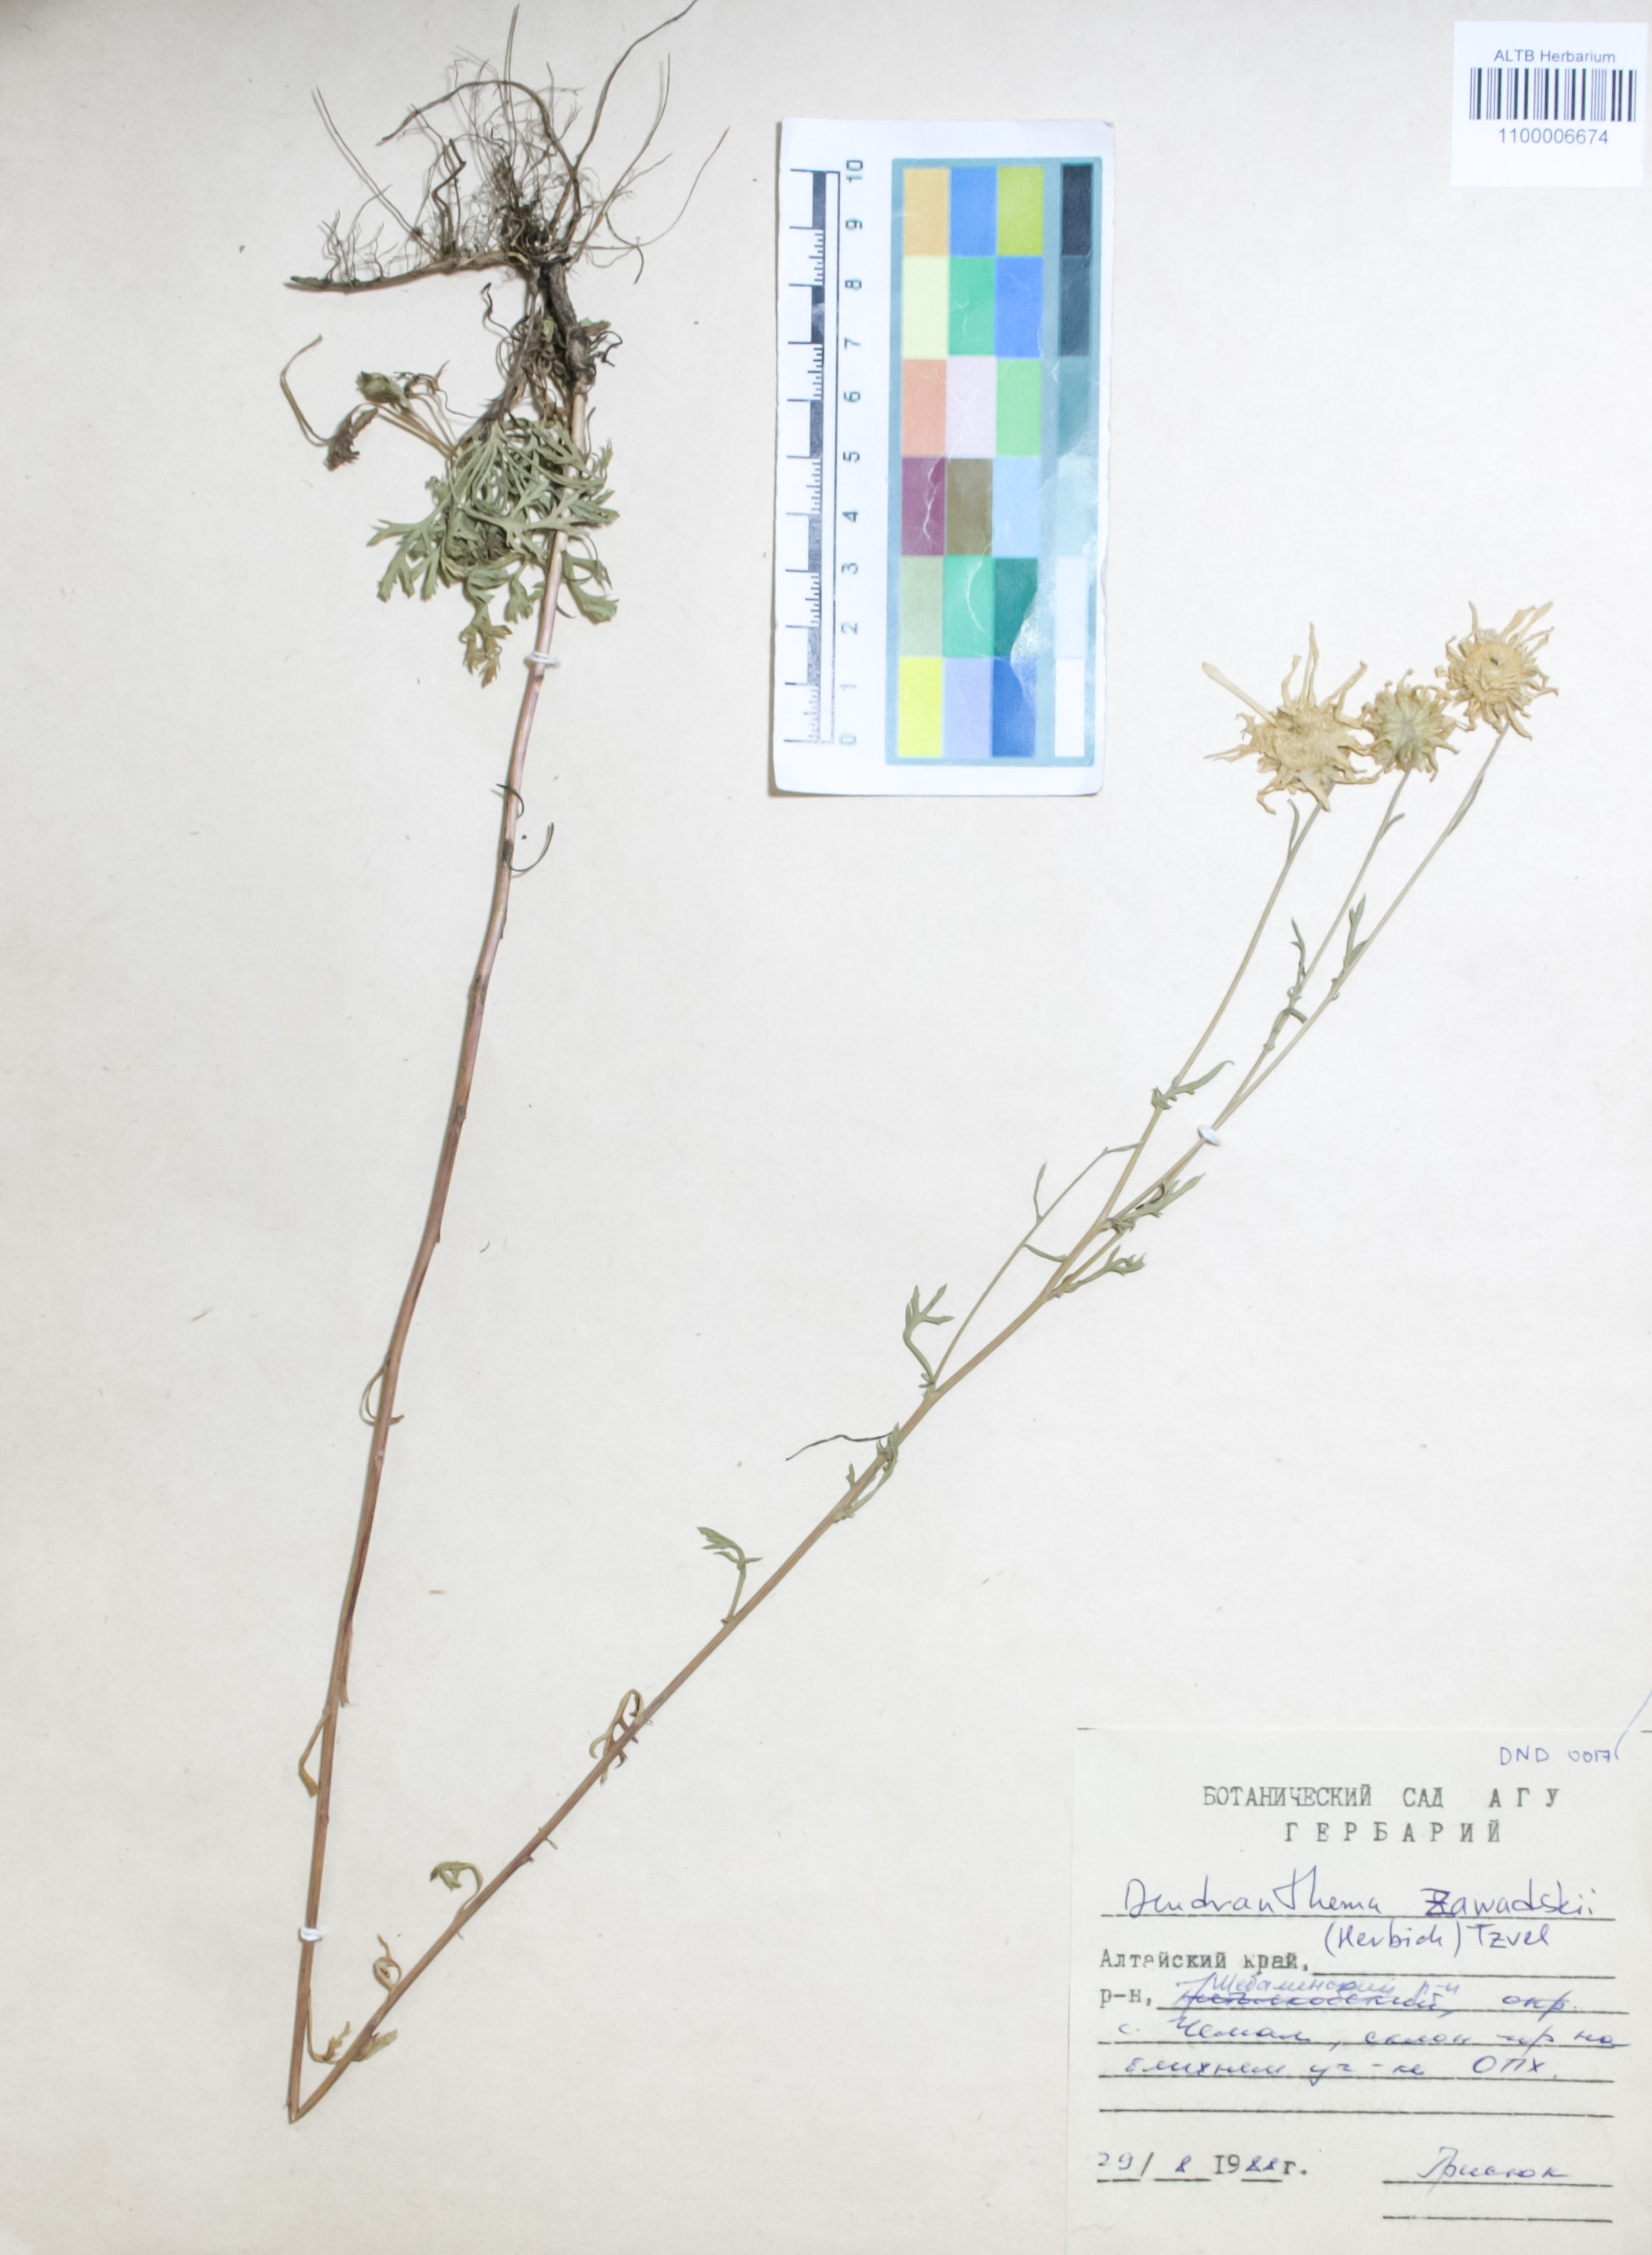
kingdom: Plantae
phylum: Tracheophyta
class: Magnoliopsida
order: Asterales
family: Asteraceae
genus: Chrysanthemum
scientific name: Chrysanthemum zawadzkii
